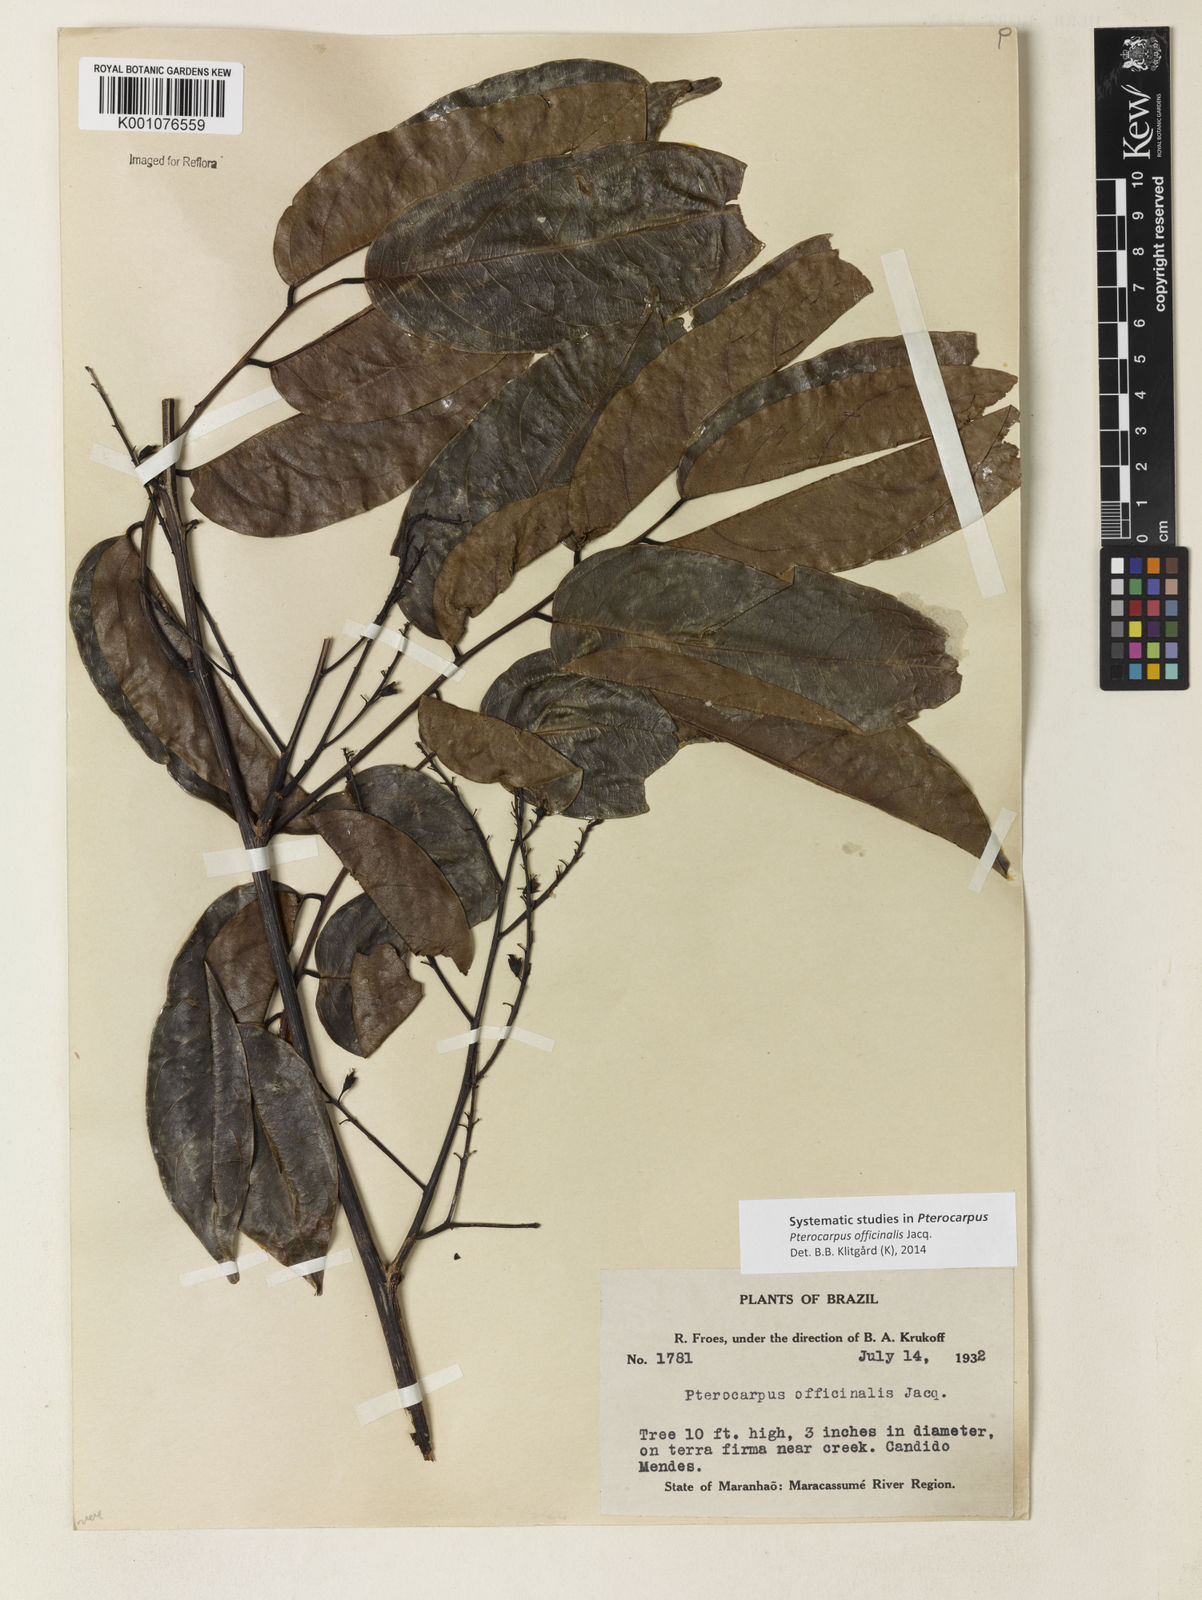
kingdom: Plantae
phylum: Tracheophyta
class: Magnoliopsida
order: Fabales
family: Fabaceae
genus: Pterocarpus
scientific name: Pterocarpus officinalis
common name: Bloodwood
